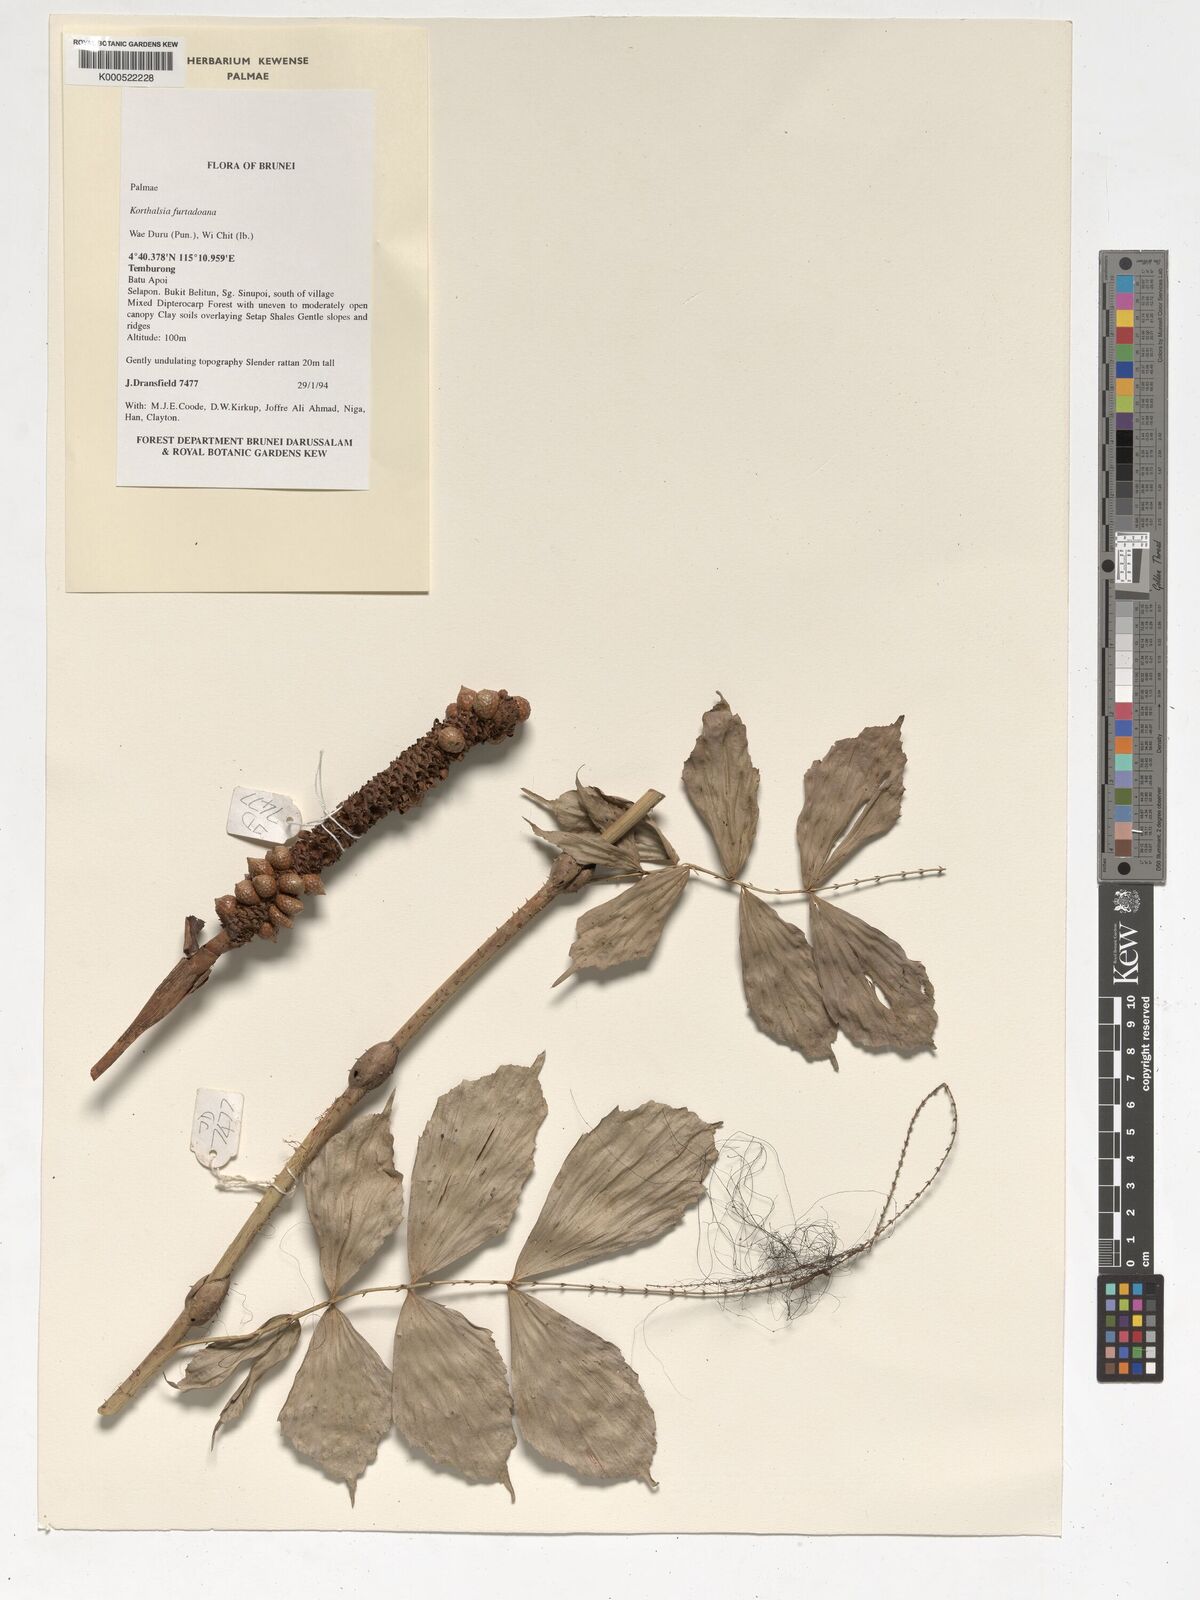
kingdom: Plantae
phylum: Tracheophyta
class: Liliopsida
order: Arecales
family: Arecaceae
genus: Korthalsia
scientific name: Korthalsia furtadoana
